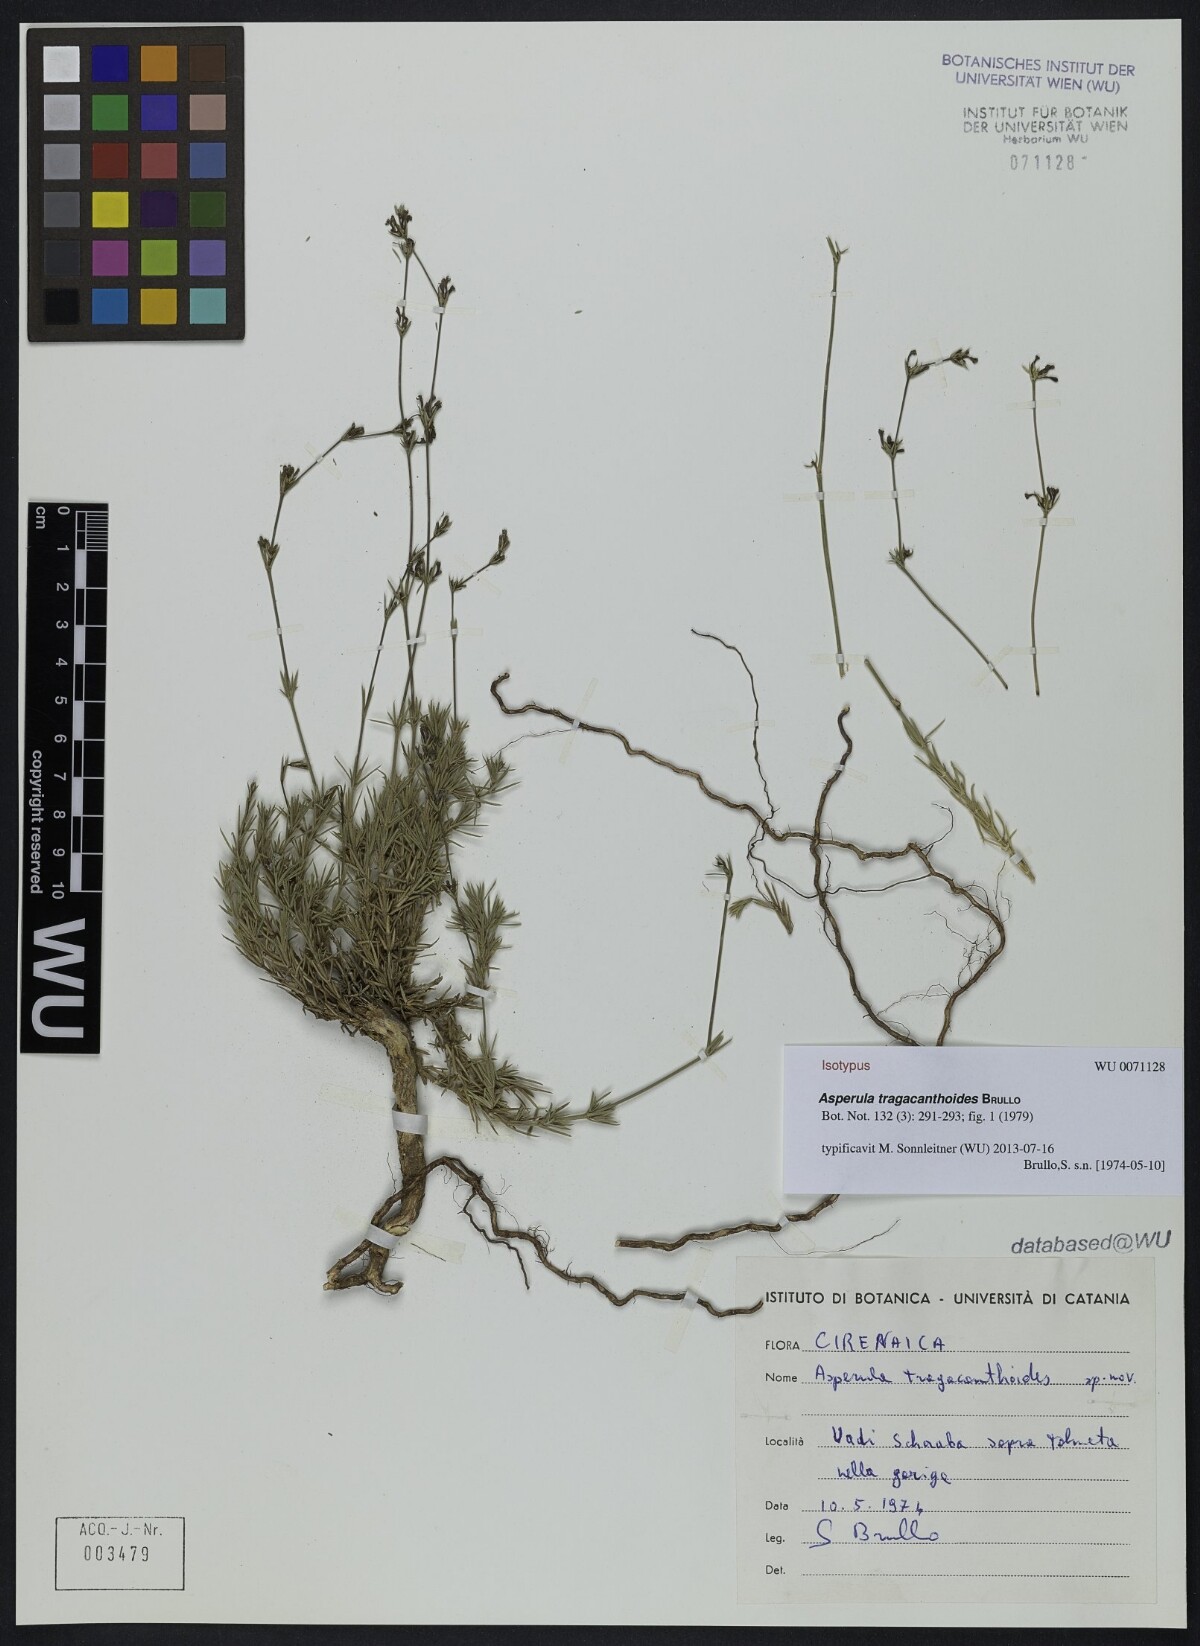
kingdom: Plantae
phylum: Tracheophyta
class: Magnoliopsida
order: Gentianales
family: Rubiaceae
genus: Cynanchica
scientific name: Cynanchica tragacanthoides
